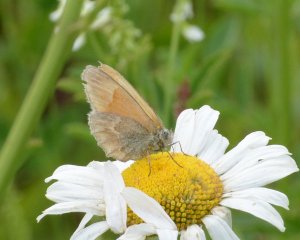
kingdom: Animalia
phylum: Arthropoda
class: Insecta
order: Lepidoptera
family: Nymphalidae
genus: Coenonympha
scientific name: Coenonympha tullia
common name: Large Heath
